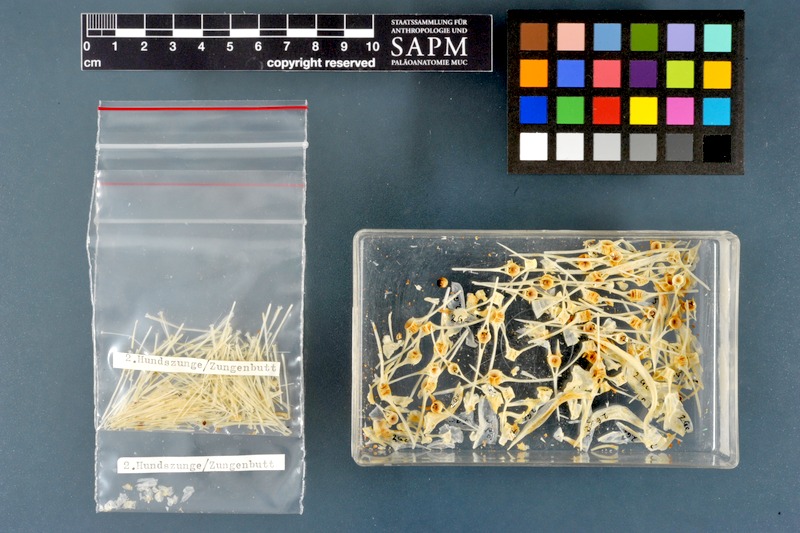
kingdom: Animalia
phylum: Chordata
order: Pleuronectiformes
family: Pleuronectidae
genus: Glyptocephalus
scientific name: Glyptocephalus cynoglossus
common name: Witch
